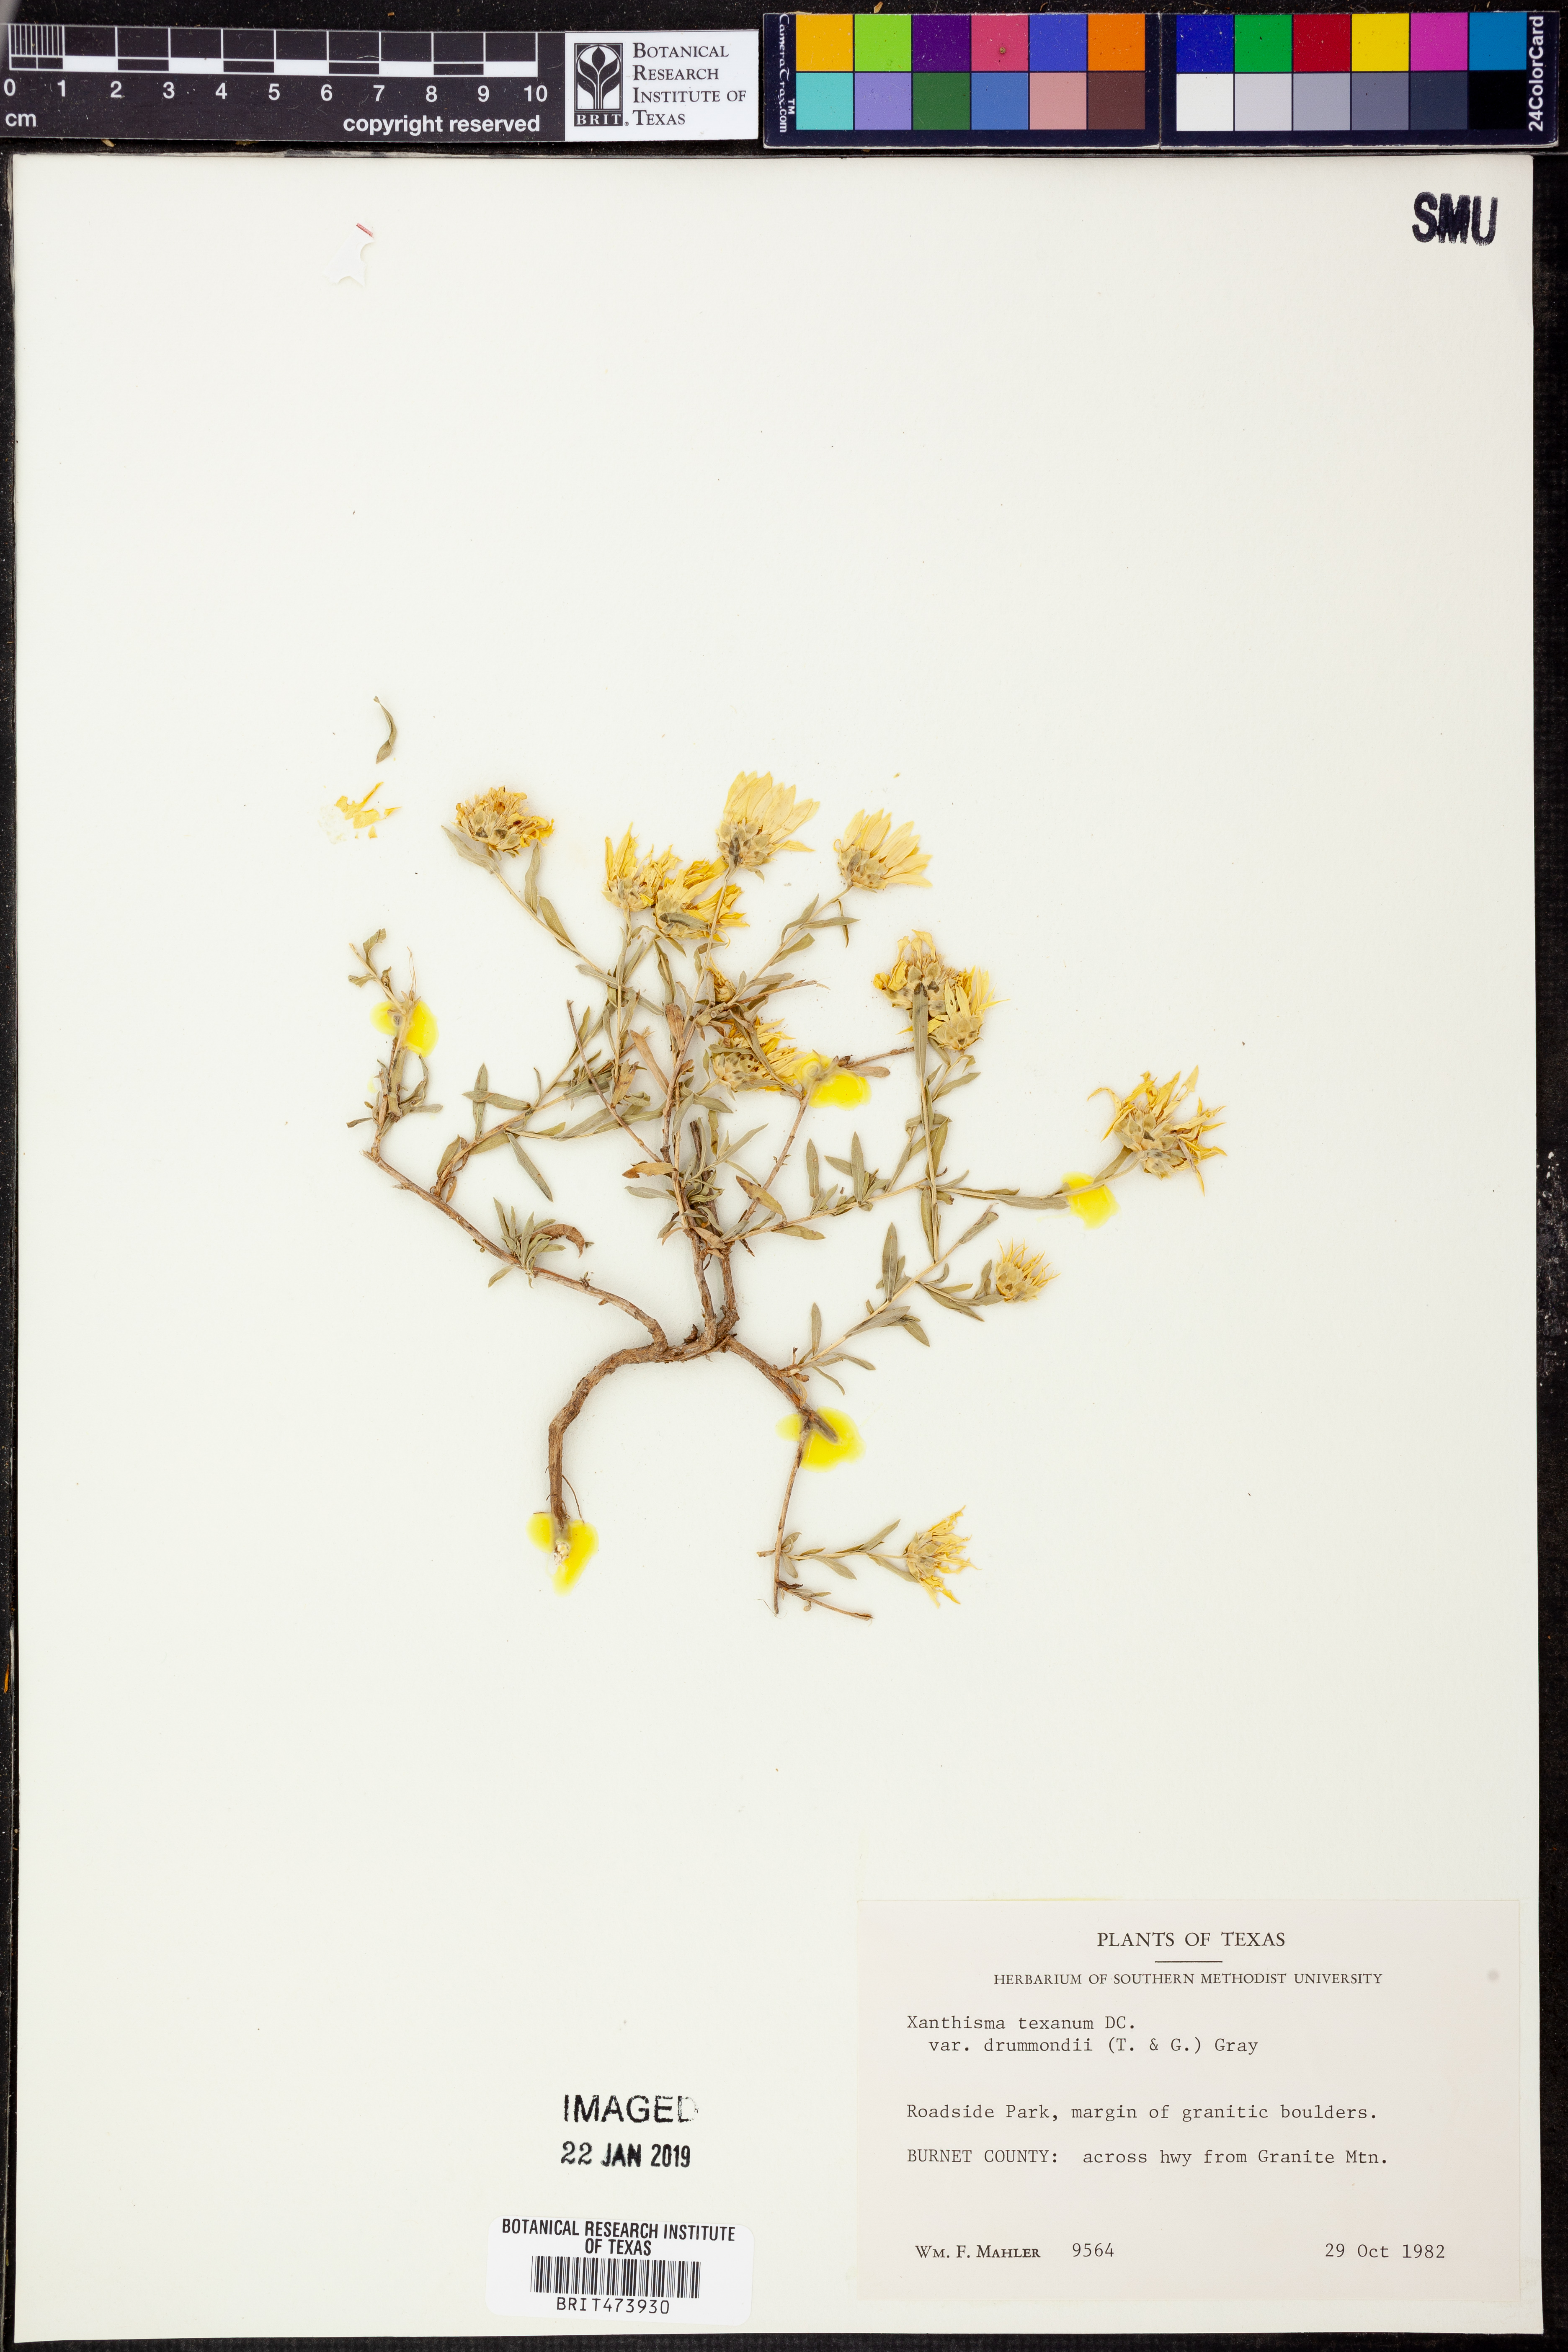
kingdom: Plantae
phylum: Tracheophyta
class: Magnoliopsida
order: Asterales
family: Asteraceae
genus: Xanthisma
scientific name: Xanthisma texanum
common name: Texas sleepy daisy
